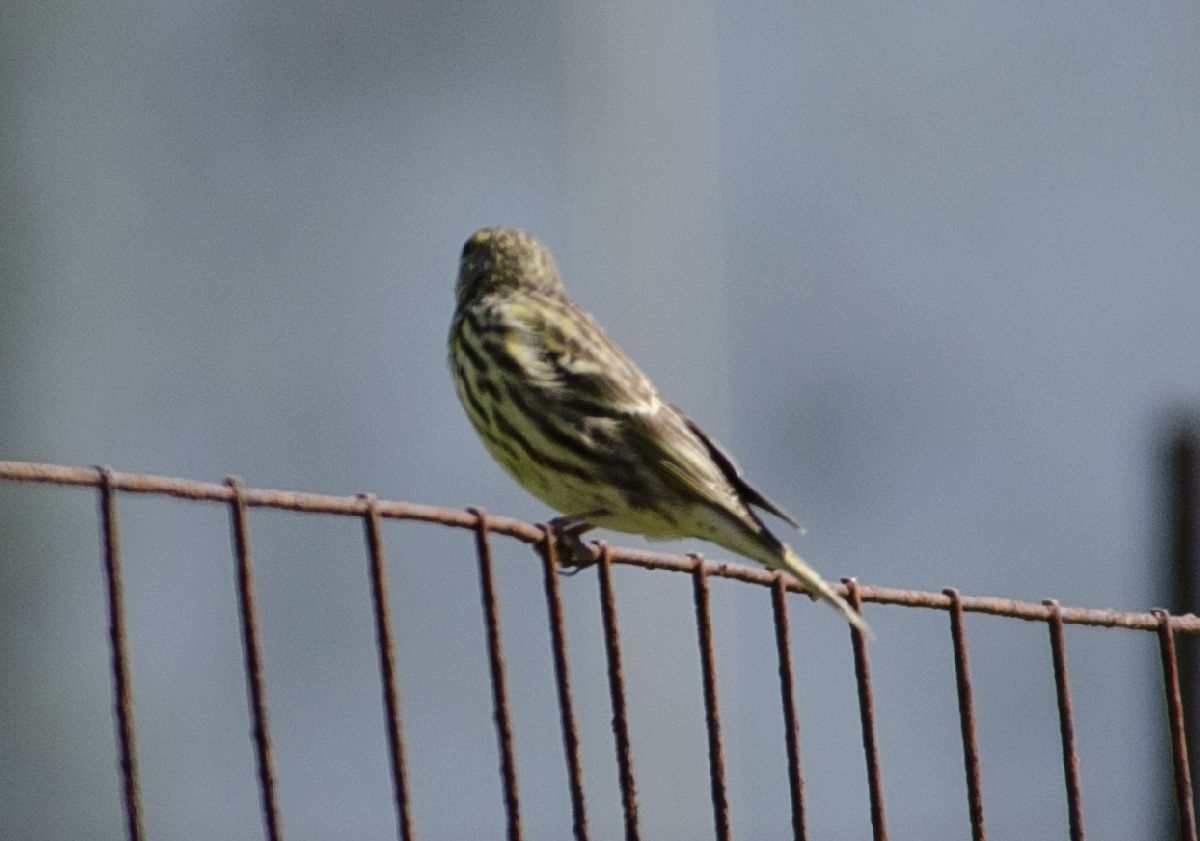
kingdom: Animalia
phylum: Chordata
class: Aves
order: Passeriformes
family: Fringillidae
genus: Serinus
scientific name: Serinus serinus
